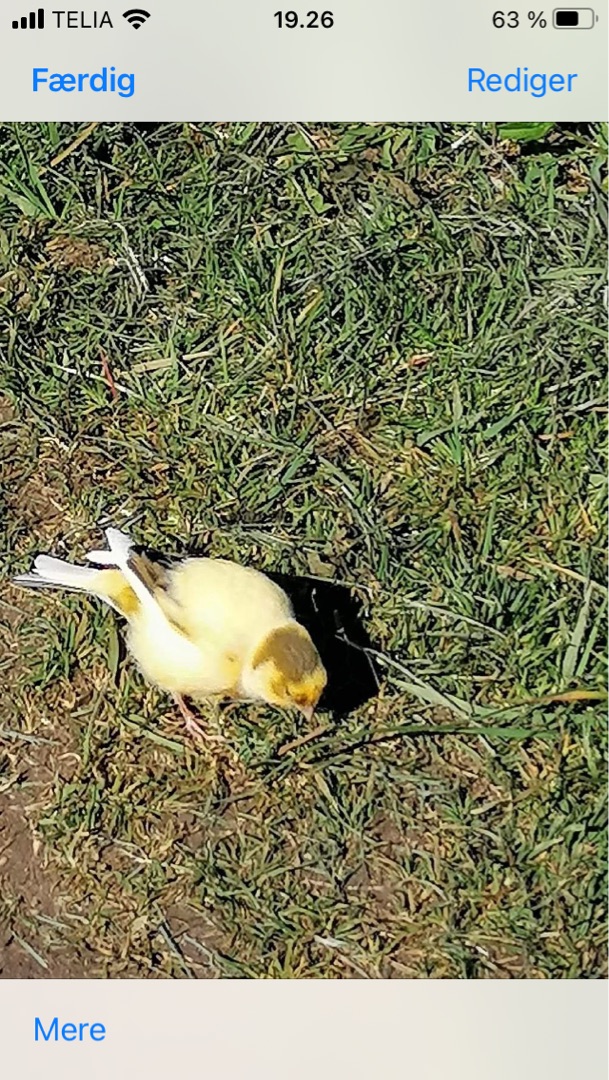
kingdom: Animalia
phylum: Chordata
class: Aves
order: Passeriformes
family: Fringillidae
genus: Serinus
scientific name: Serinus canaria
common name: Kanariefugl
